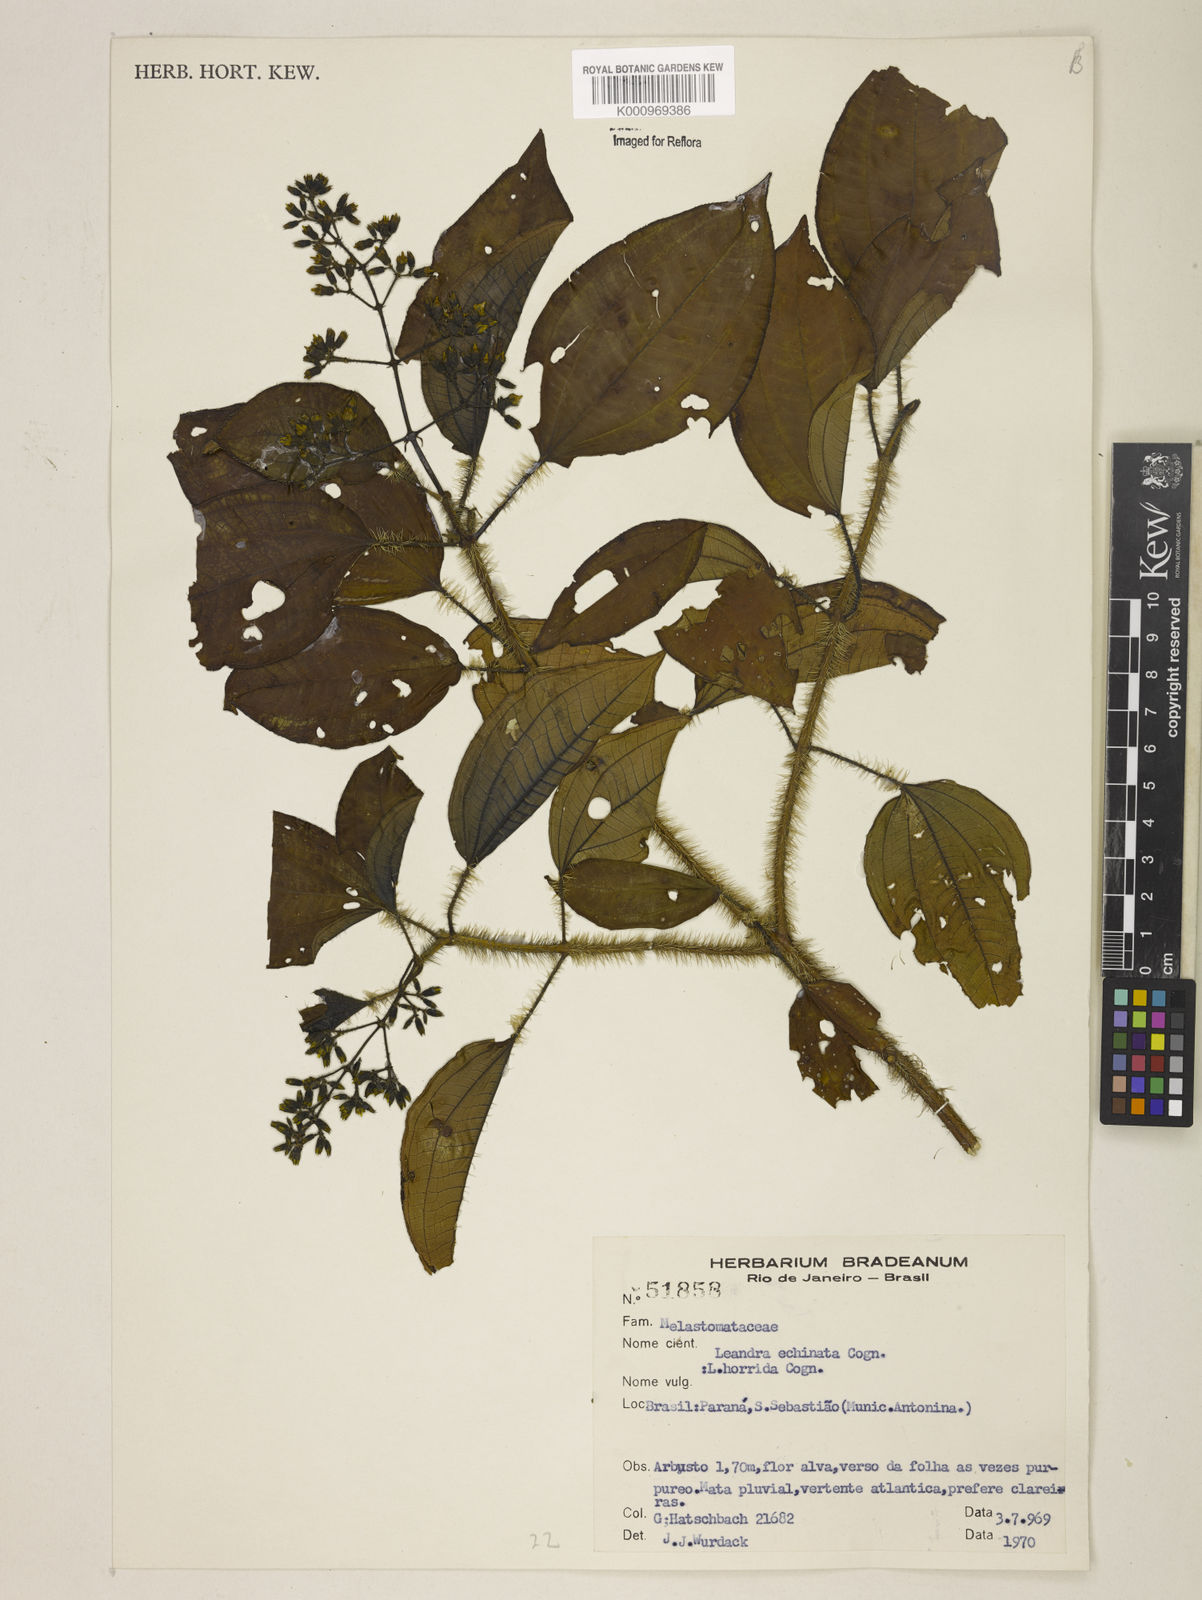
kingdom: Plantae
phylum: Tracheophyta
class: Magnoliopsida
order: Myrtales
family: Melastomataceae
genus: Miconia
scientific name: Miconia leaechinata
